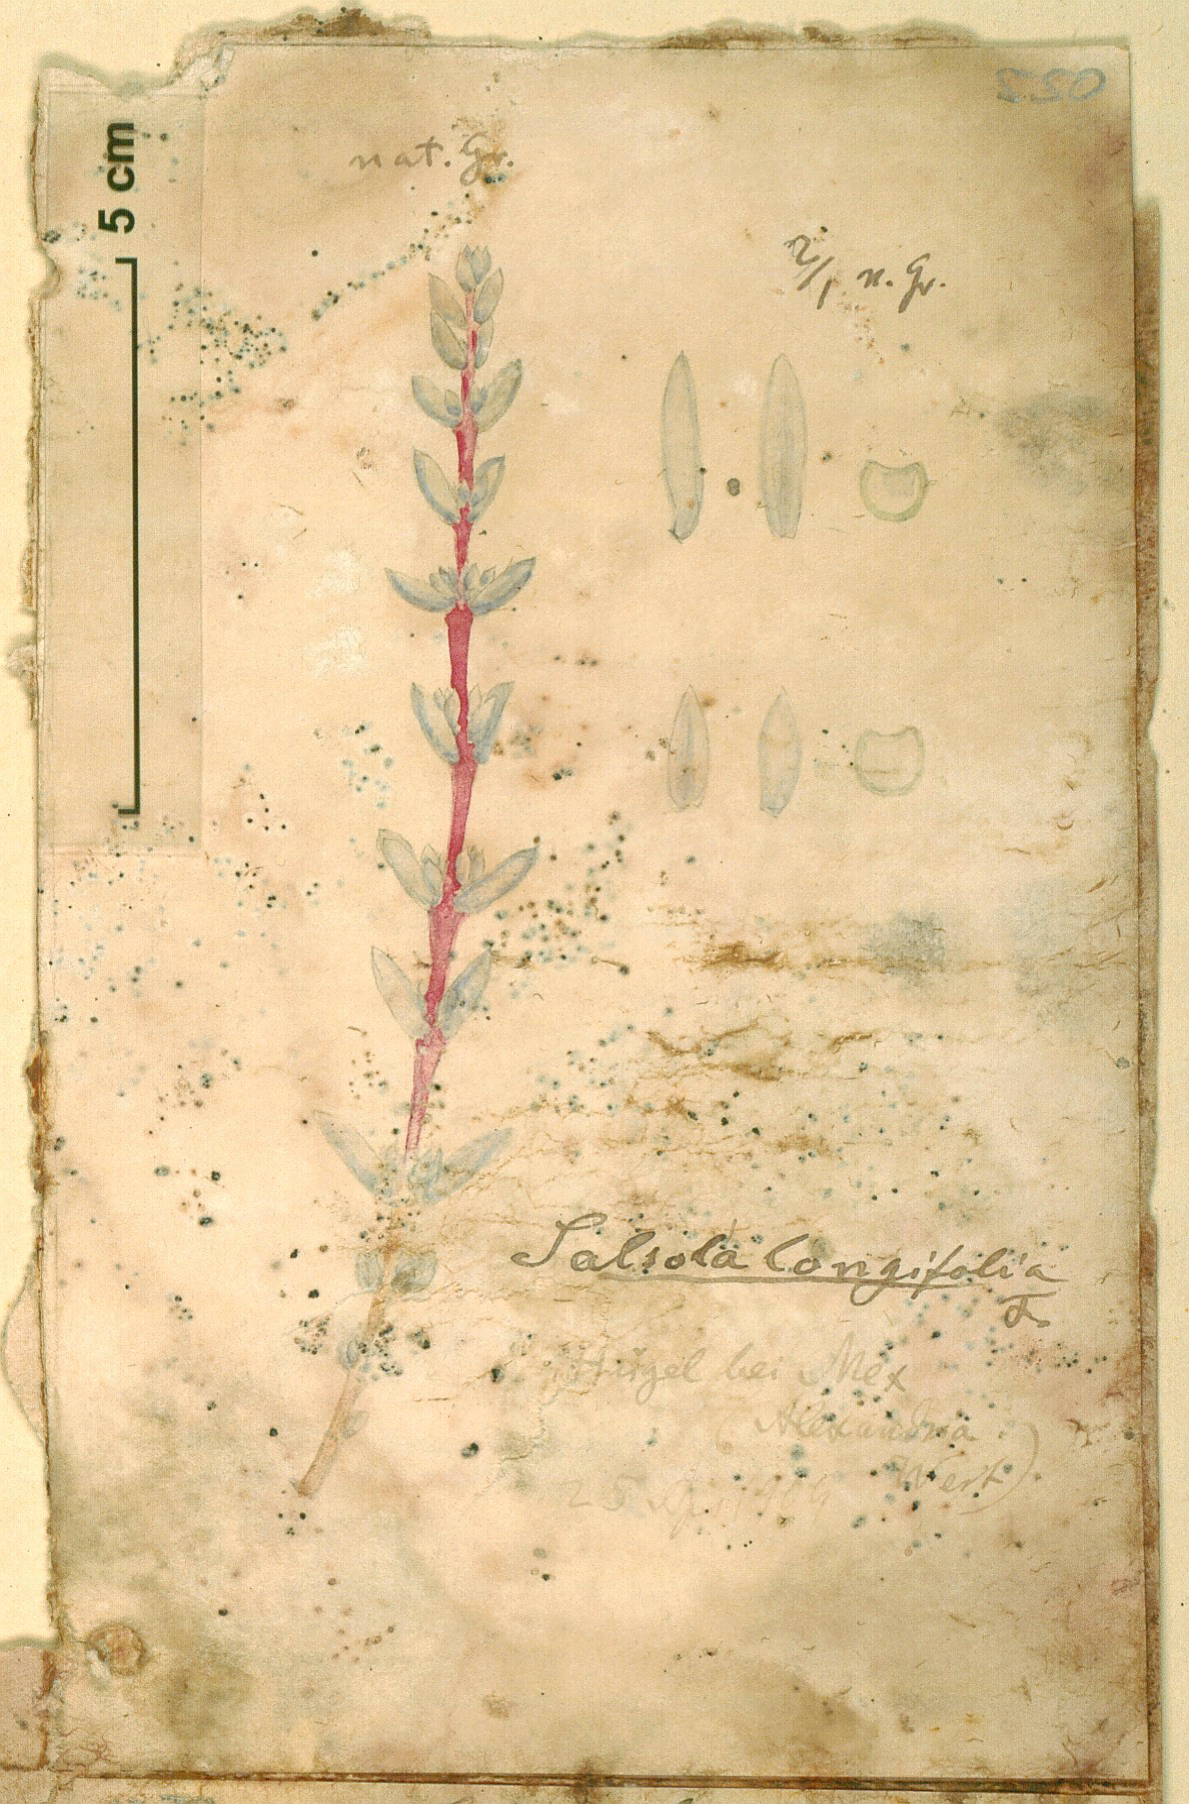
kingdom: Plantae
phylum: Tracheophyta
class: Magnoliopsida
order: Caryophyllales
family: Amaranthaceae
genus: Soda
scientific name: Soda
